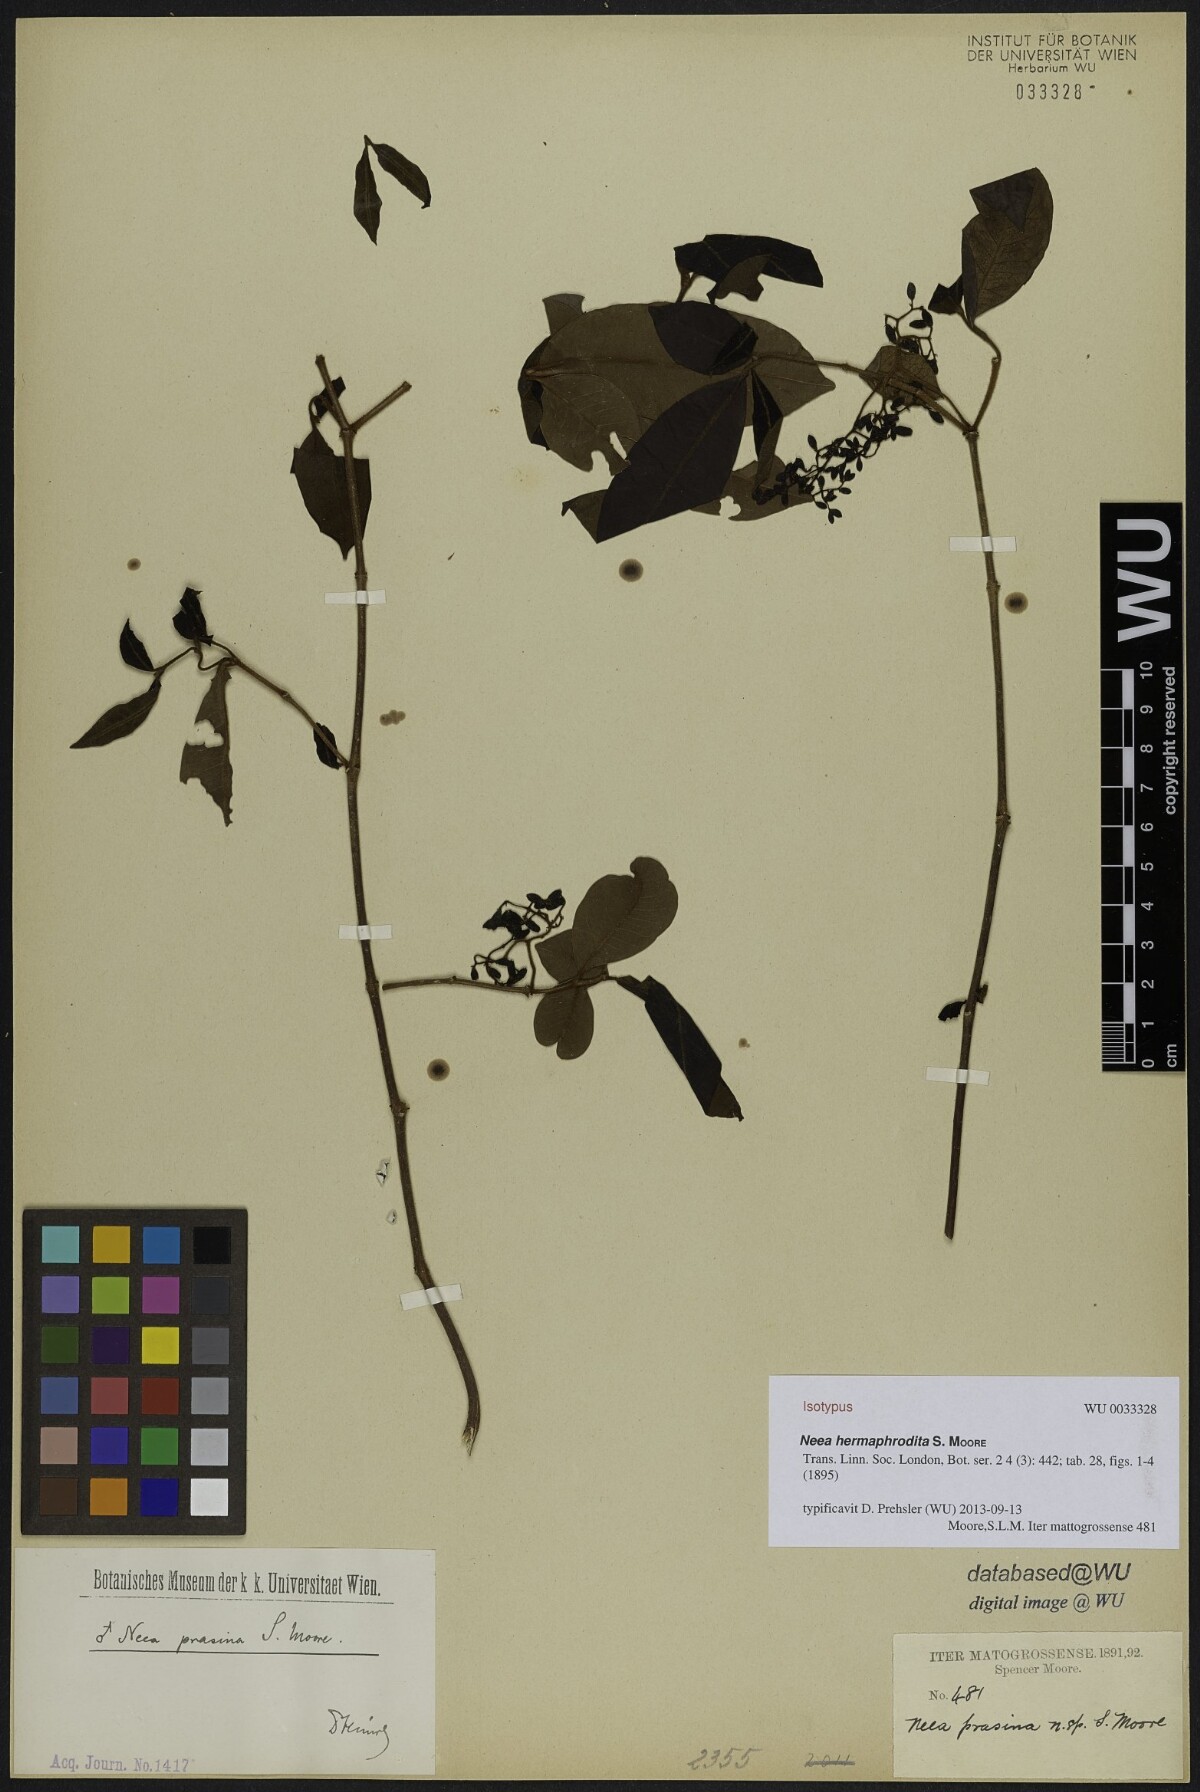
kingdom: Plantae
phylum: Tracheophyta
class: Magnoliopsida
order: Caryophyllales
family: Nyctaginaceae
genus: Neea
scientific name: Neea hermaphrodita
